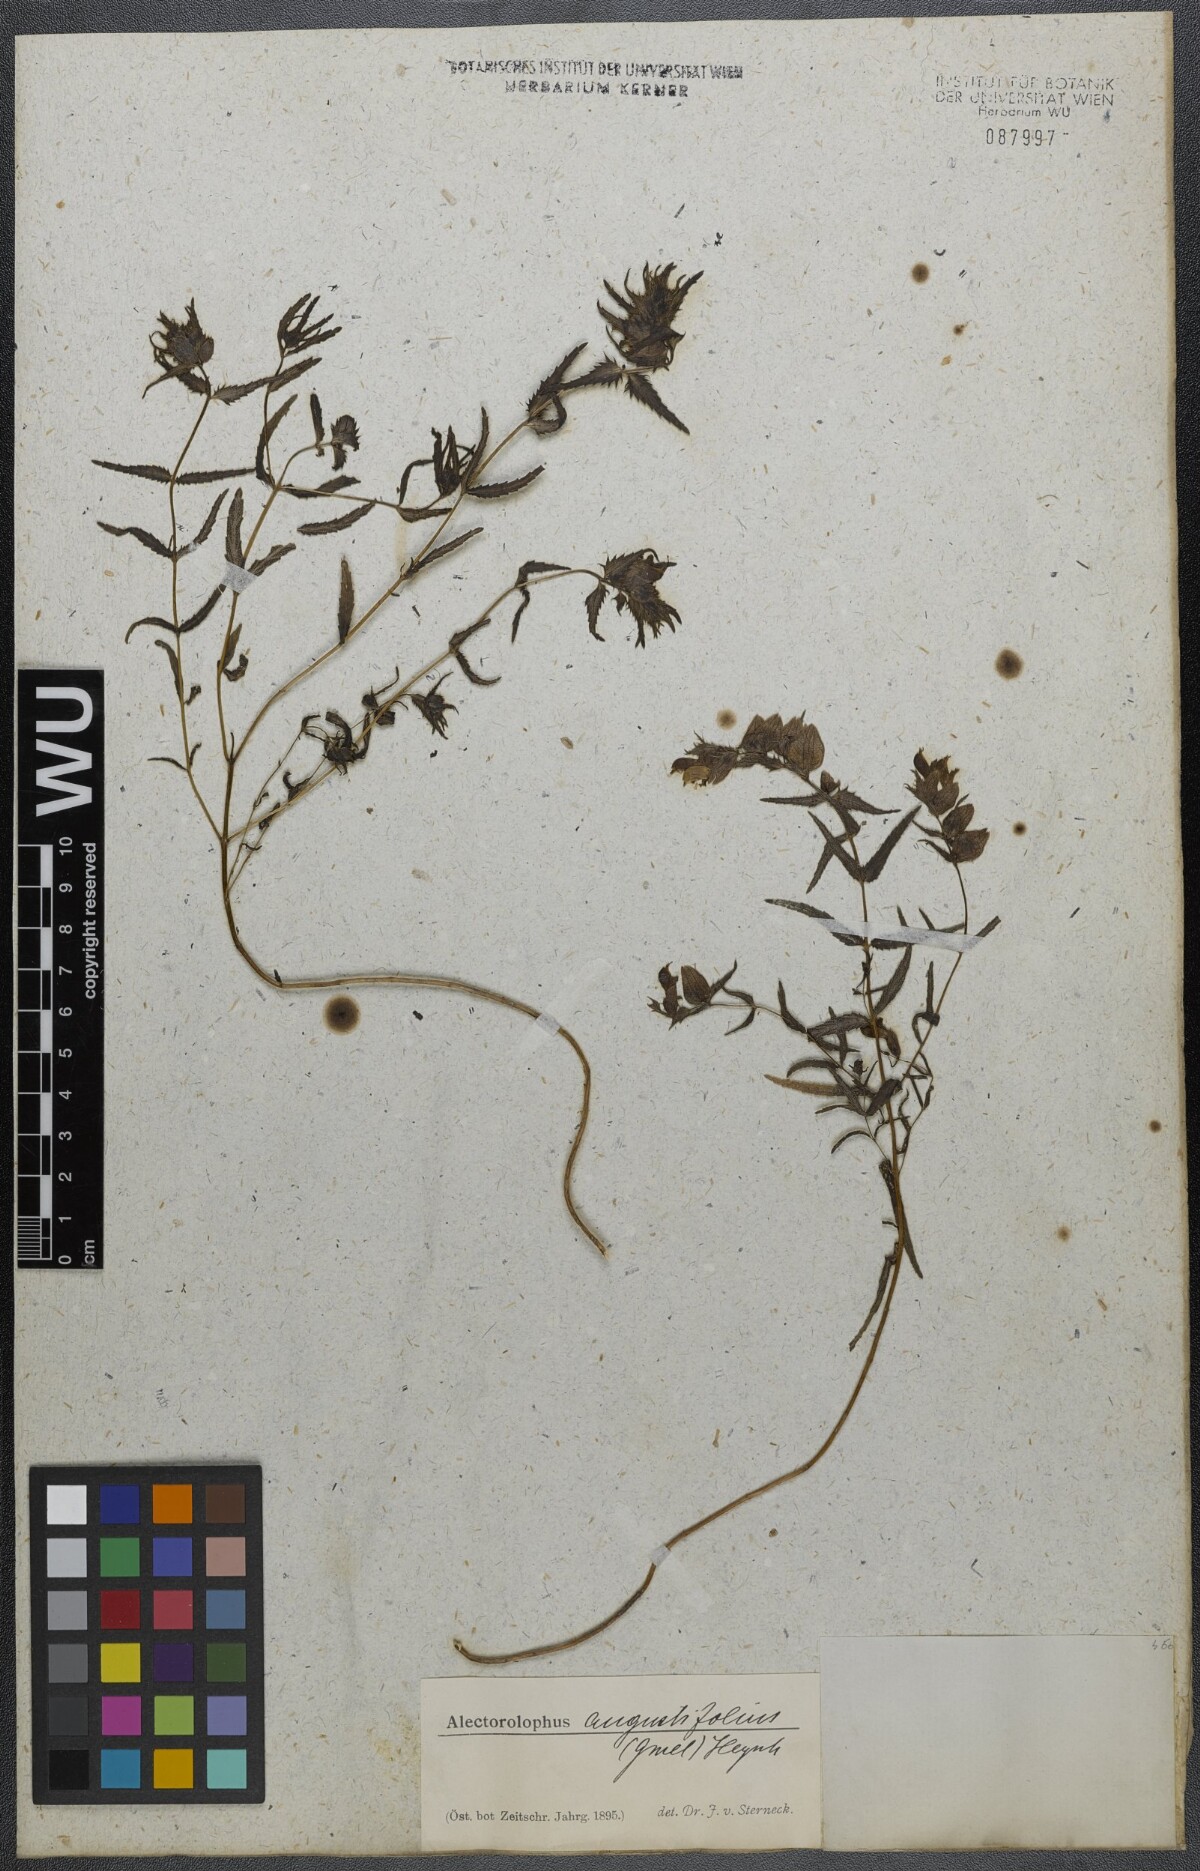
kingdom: Plantae
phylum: Tracheophyta
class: Magnoliopsida
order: Lamiales
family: Orobanchaceae
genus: Rhinanthus
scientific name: Rhinanthus
